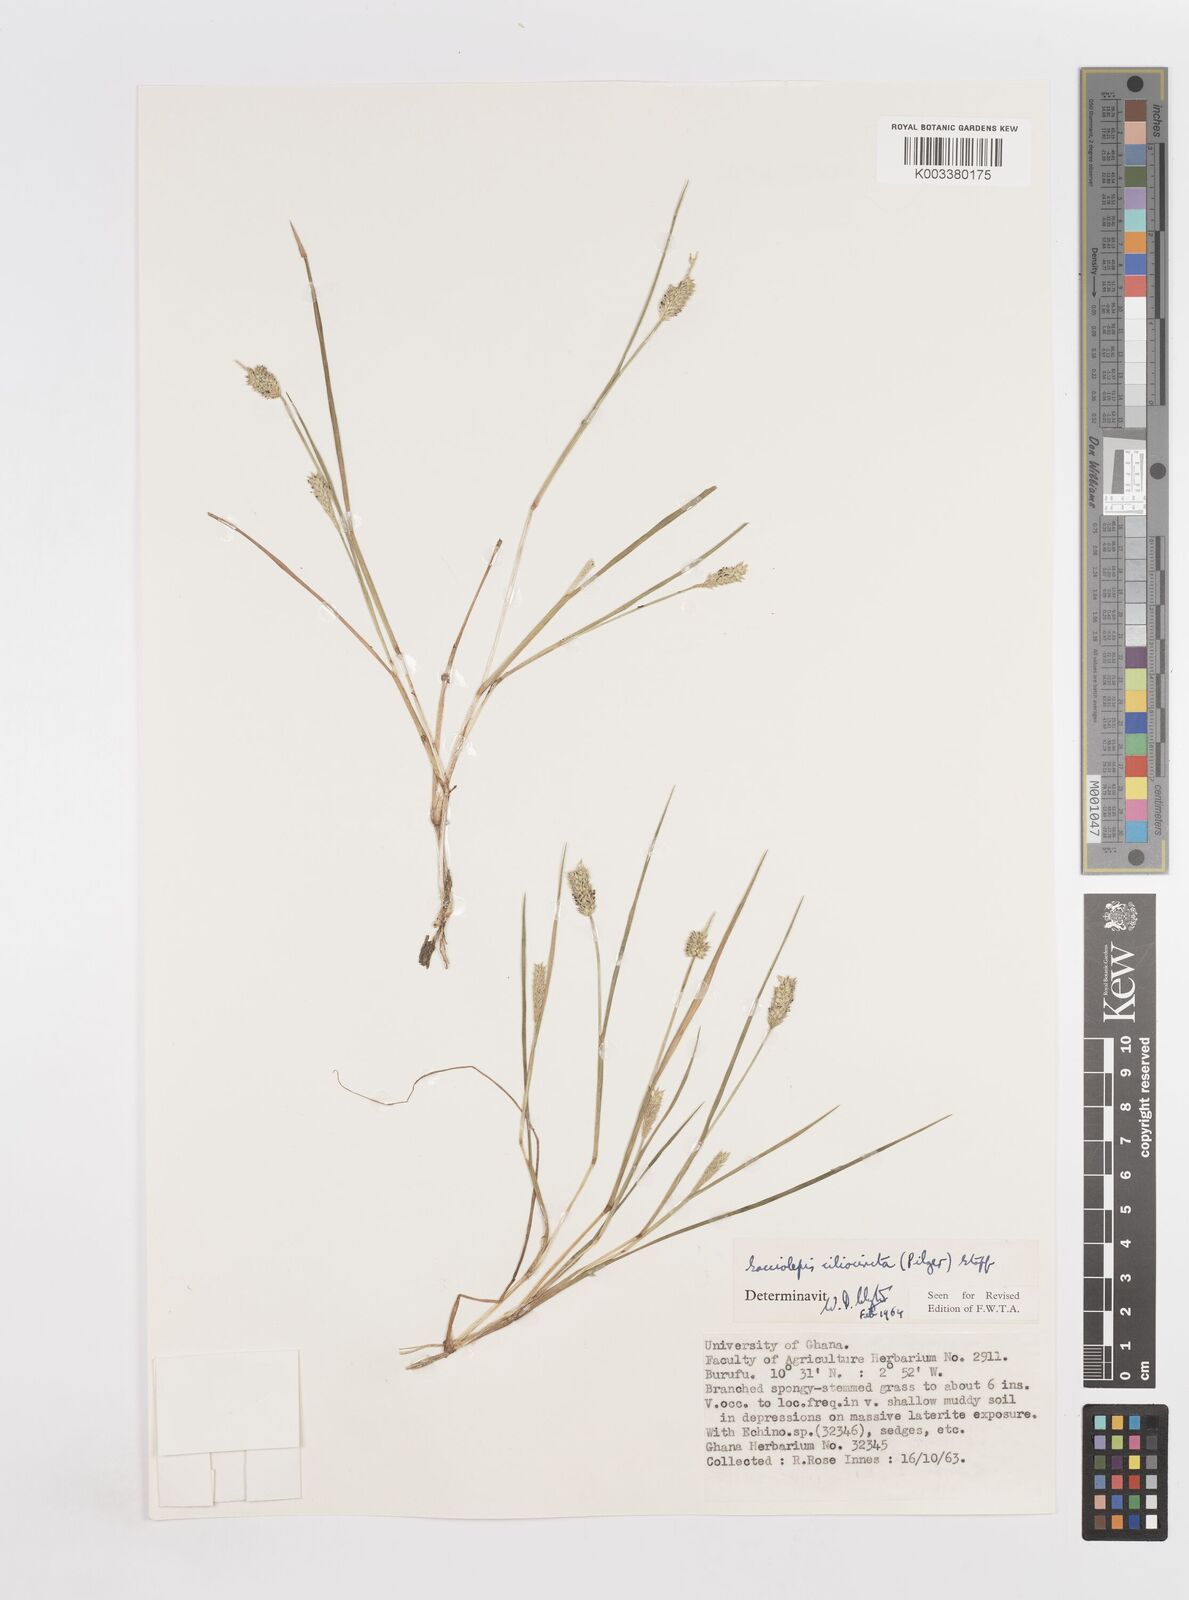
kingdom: Plantae
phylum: Tracheophyta
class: Liliopsida
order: Poales
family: Poaceae
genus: Sacciolepis
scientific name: Sacciolepis ciliocincta
